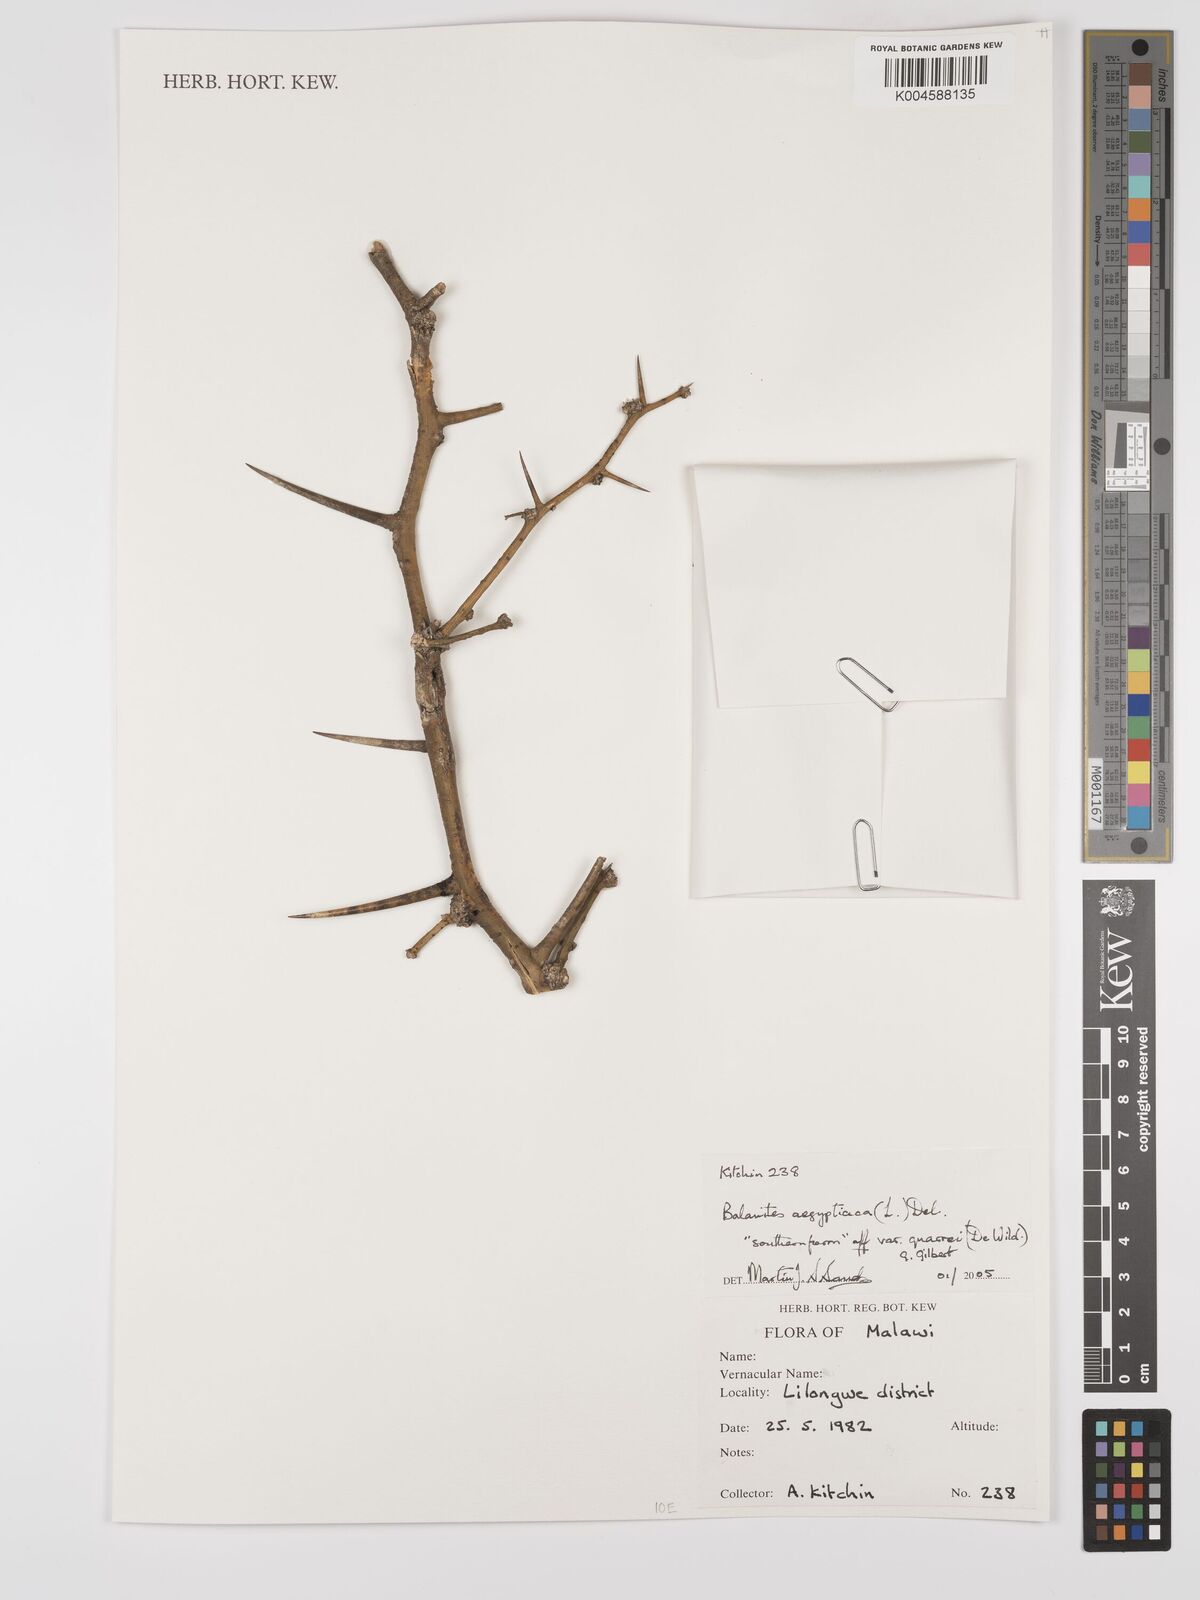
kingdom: Plantae
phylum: Tracheophyta
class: Magnoliopsida
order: Zygophyllales
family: Zygophyllaceae
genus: Balanites
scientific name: Balanites aegyptiaca
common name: Balanites
